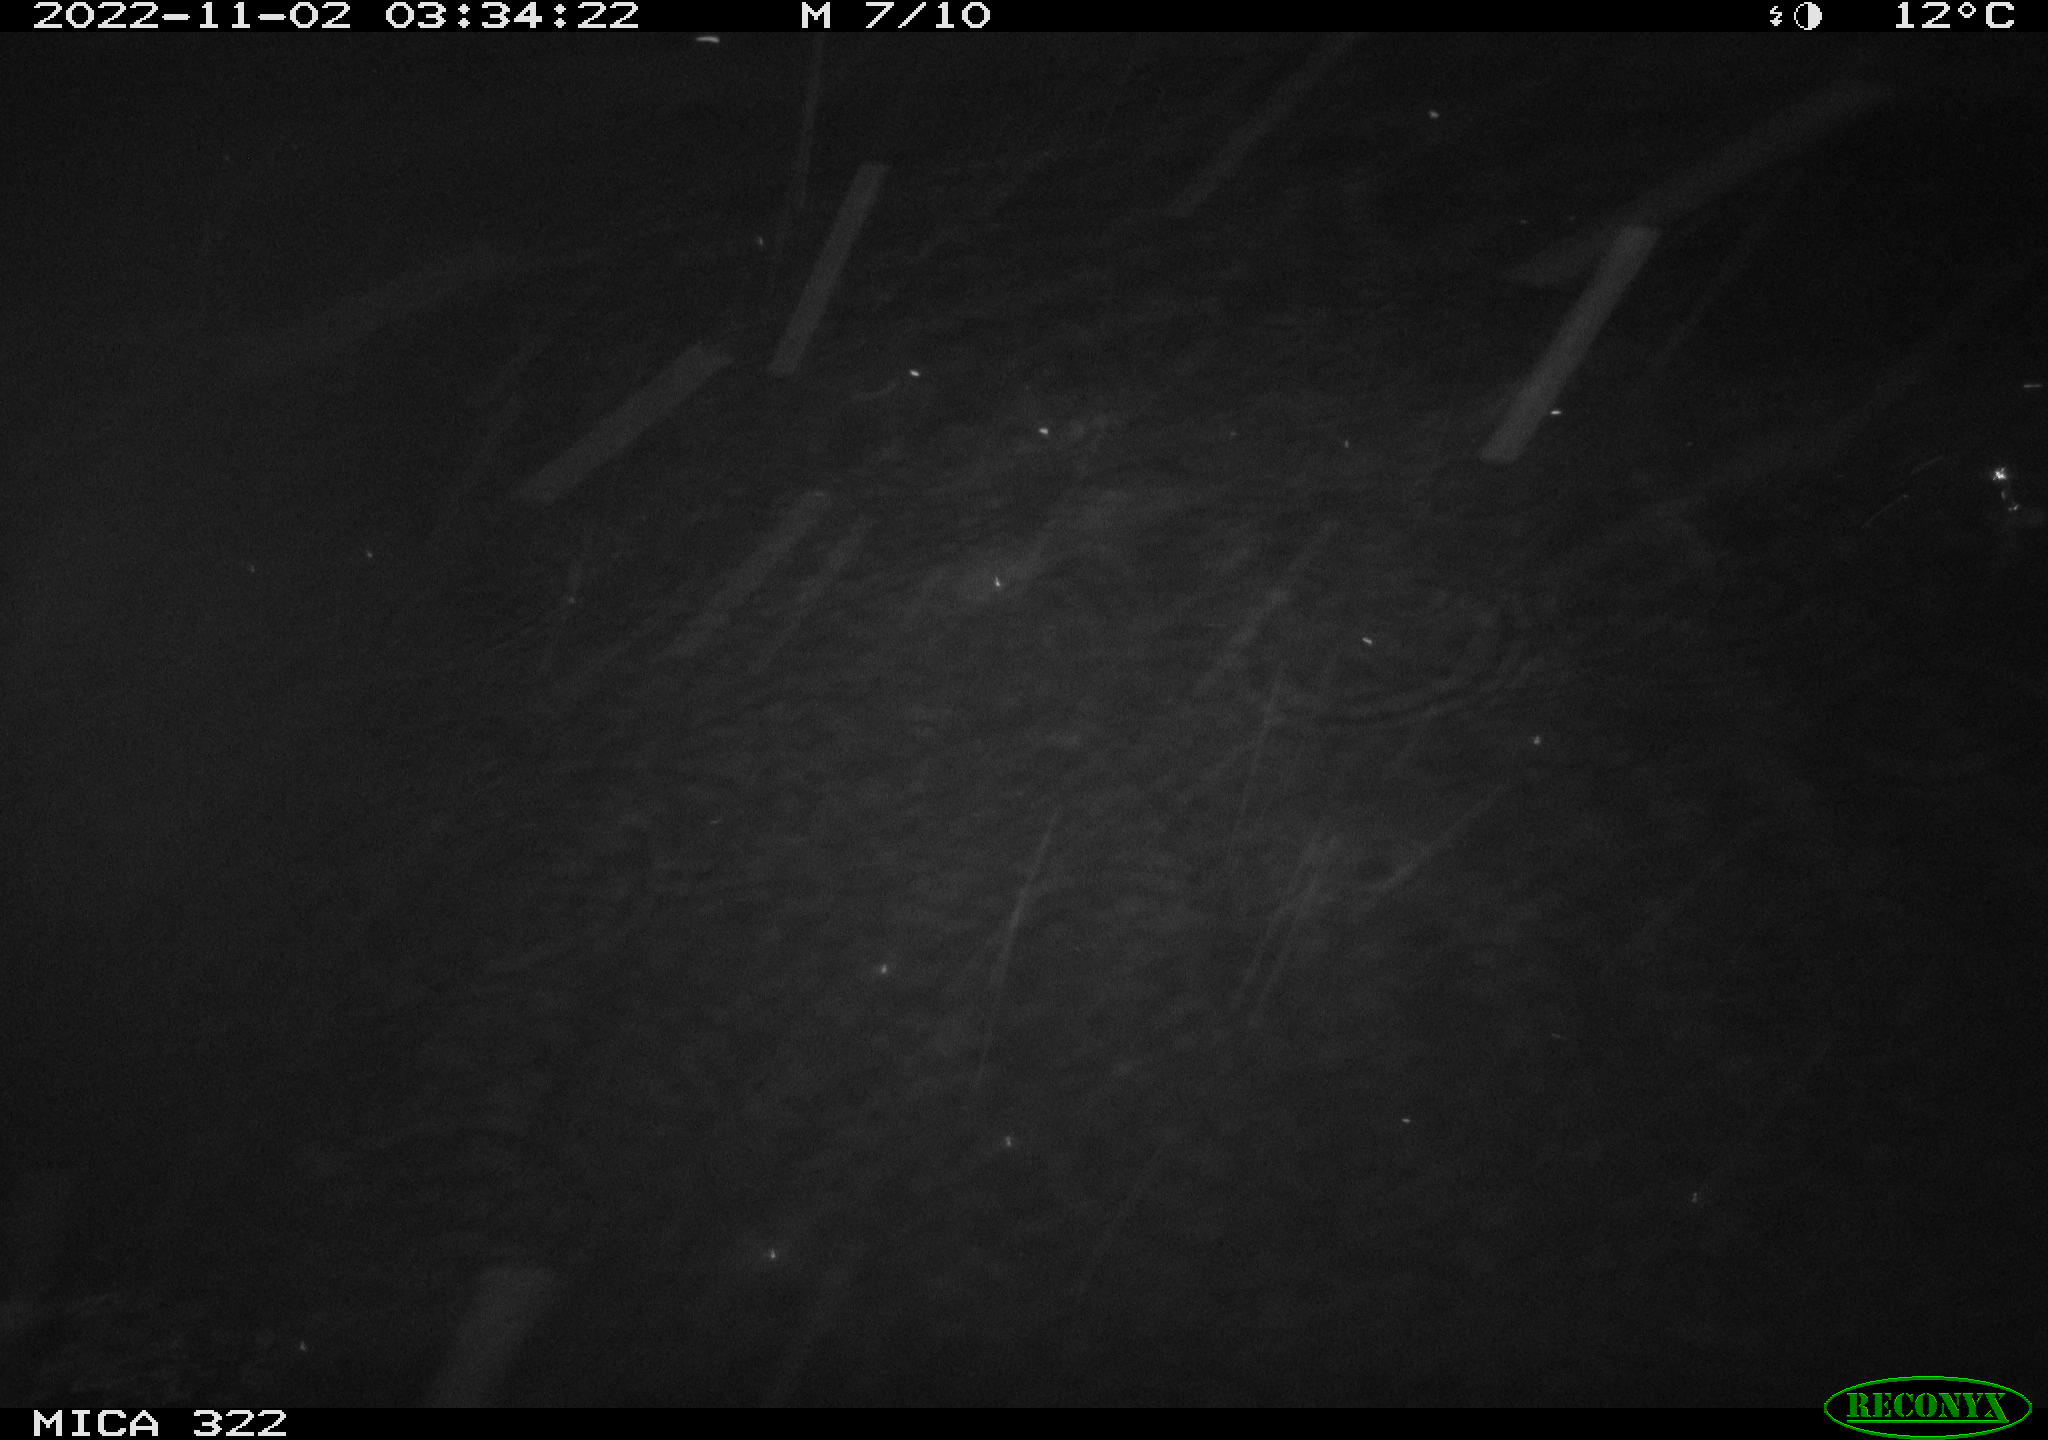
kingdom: Animalia
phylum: Chordata
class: Mammalia
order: Rodentia
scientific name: Rodentia
